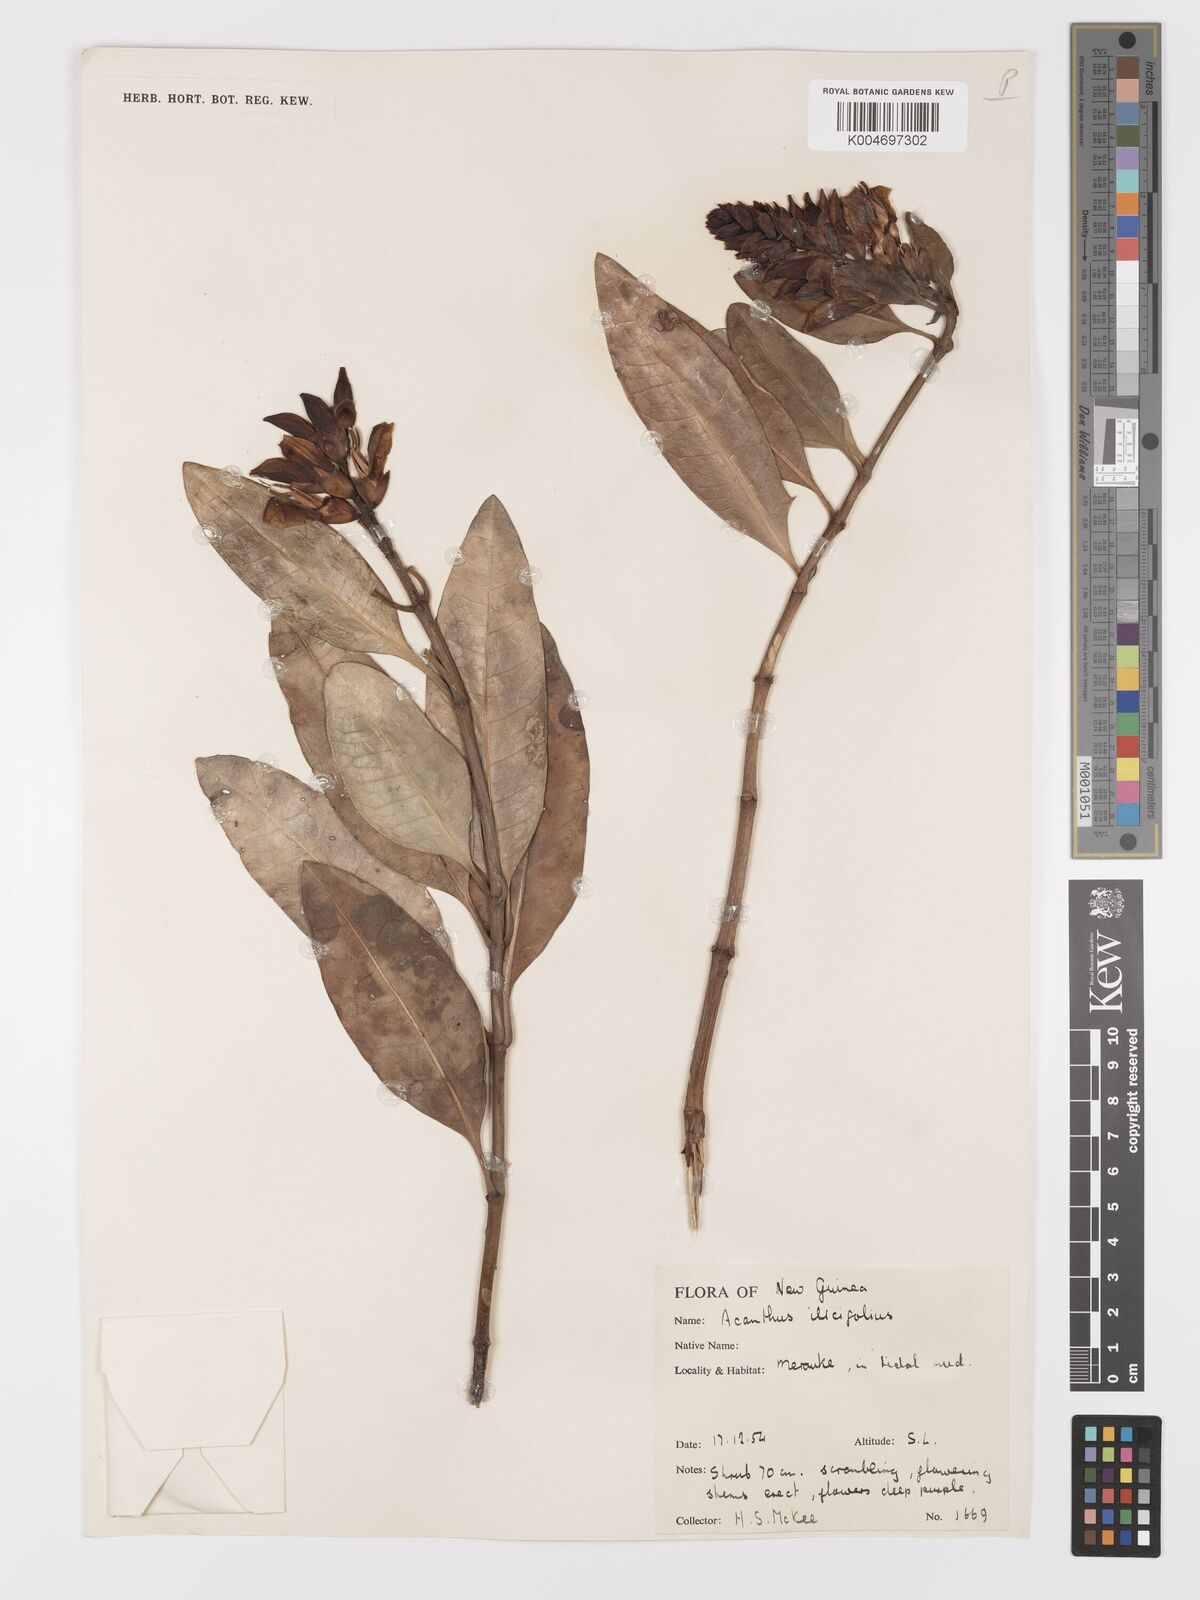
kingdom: Plantae
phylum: Tracheophyta
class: Magnoliopsida
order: Lamiales
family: Acanthaceae
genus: Acanthus
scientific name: Acanthus ilicifolius
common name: Holy mangrove
